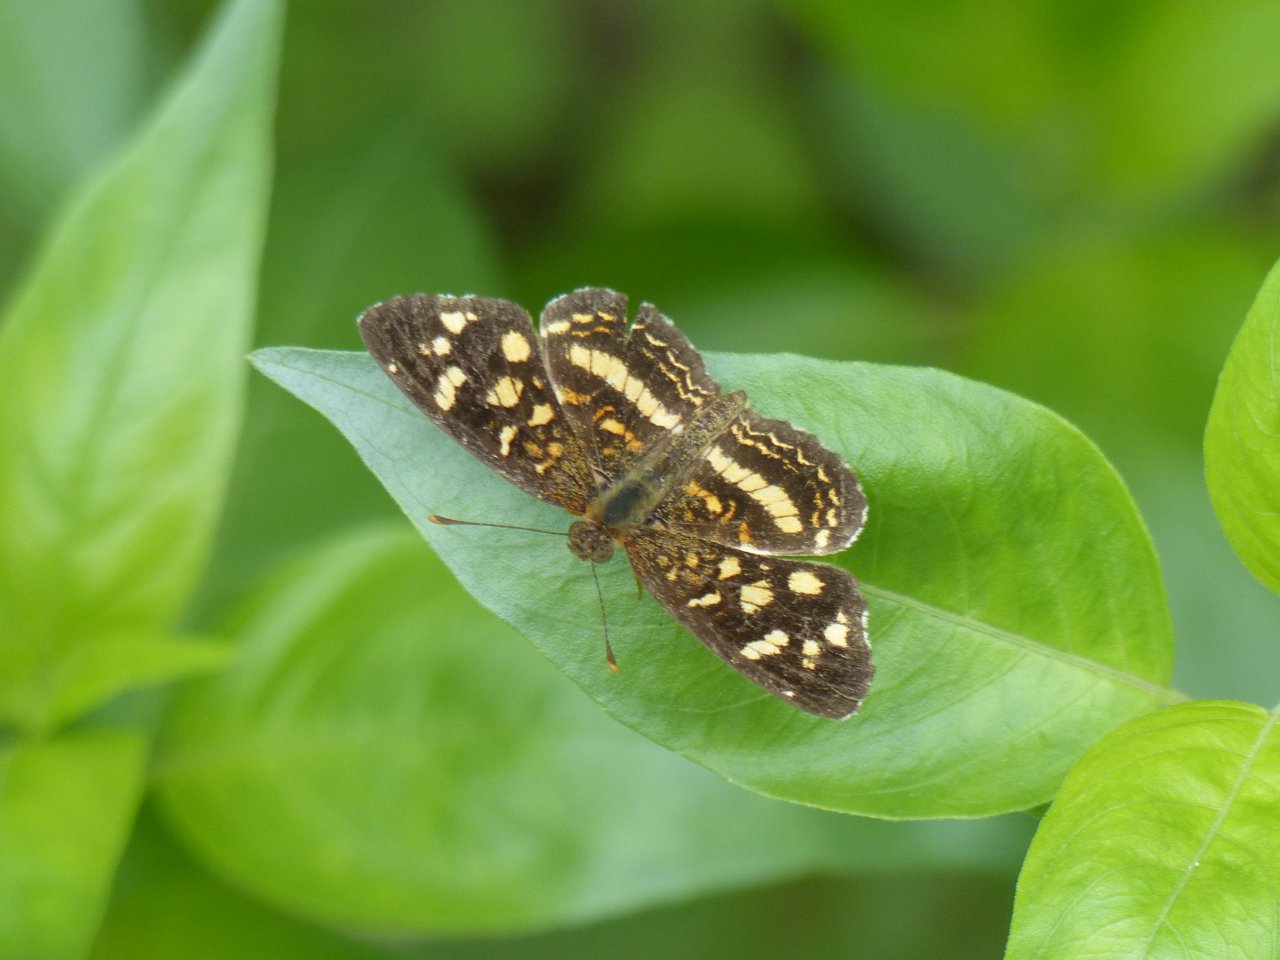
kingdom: Animalia
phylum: Arthropoda
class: Insecta
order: Lepidoptera
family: Nymphalidae
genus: Anthanassa
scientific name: Anthanassa tulcis
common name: Pale-banded Crescent
